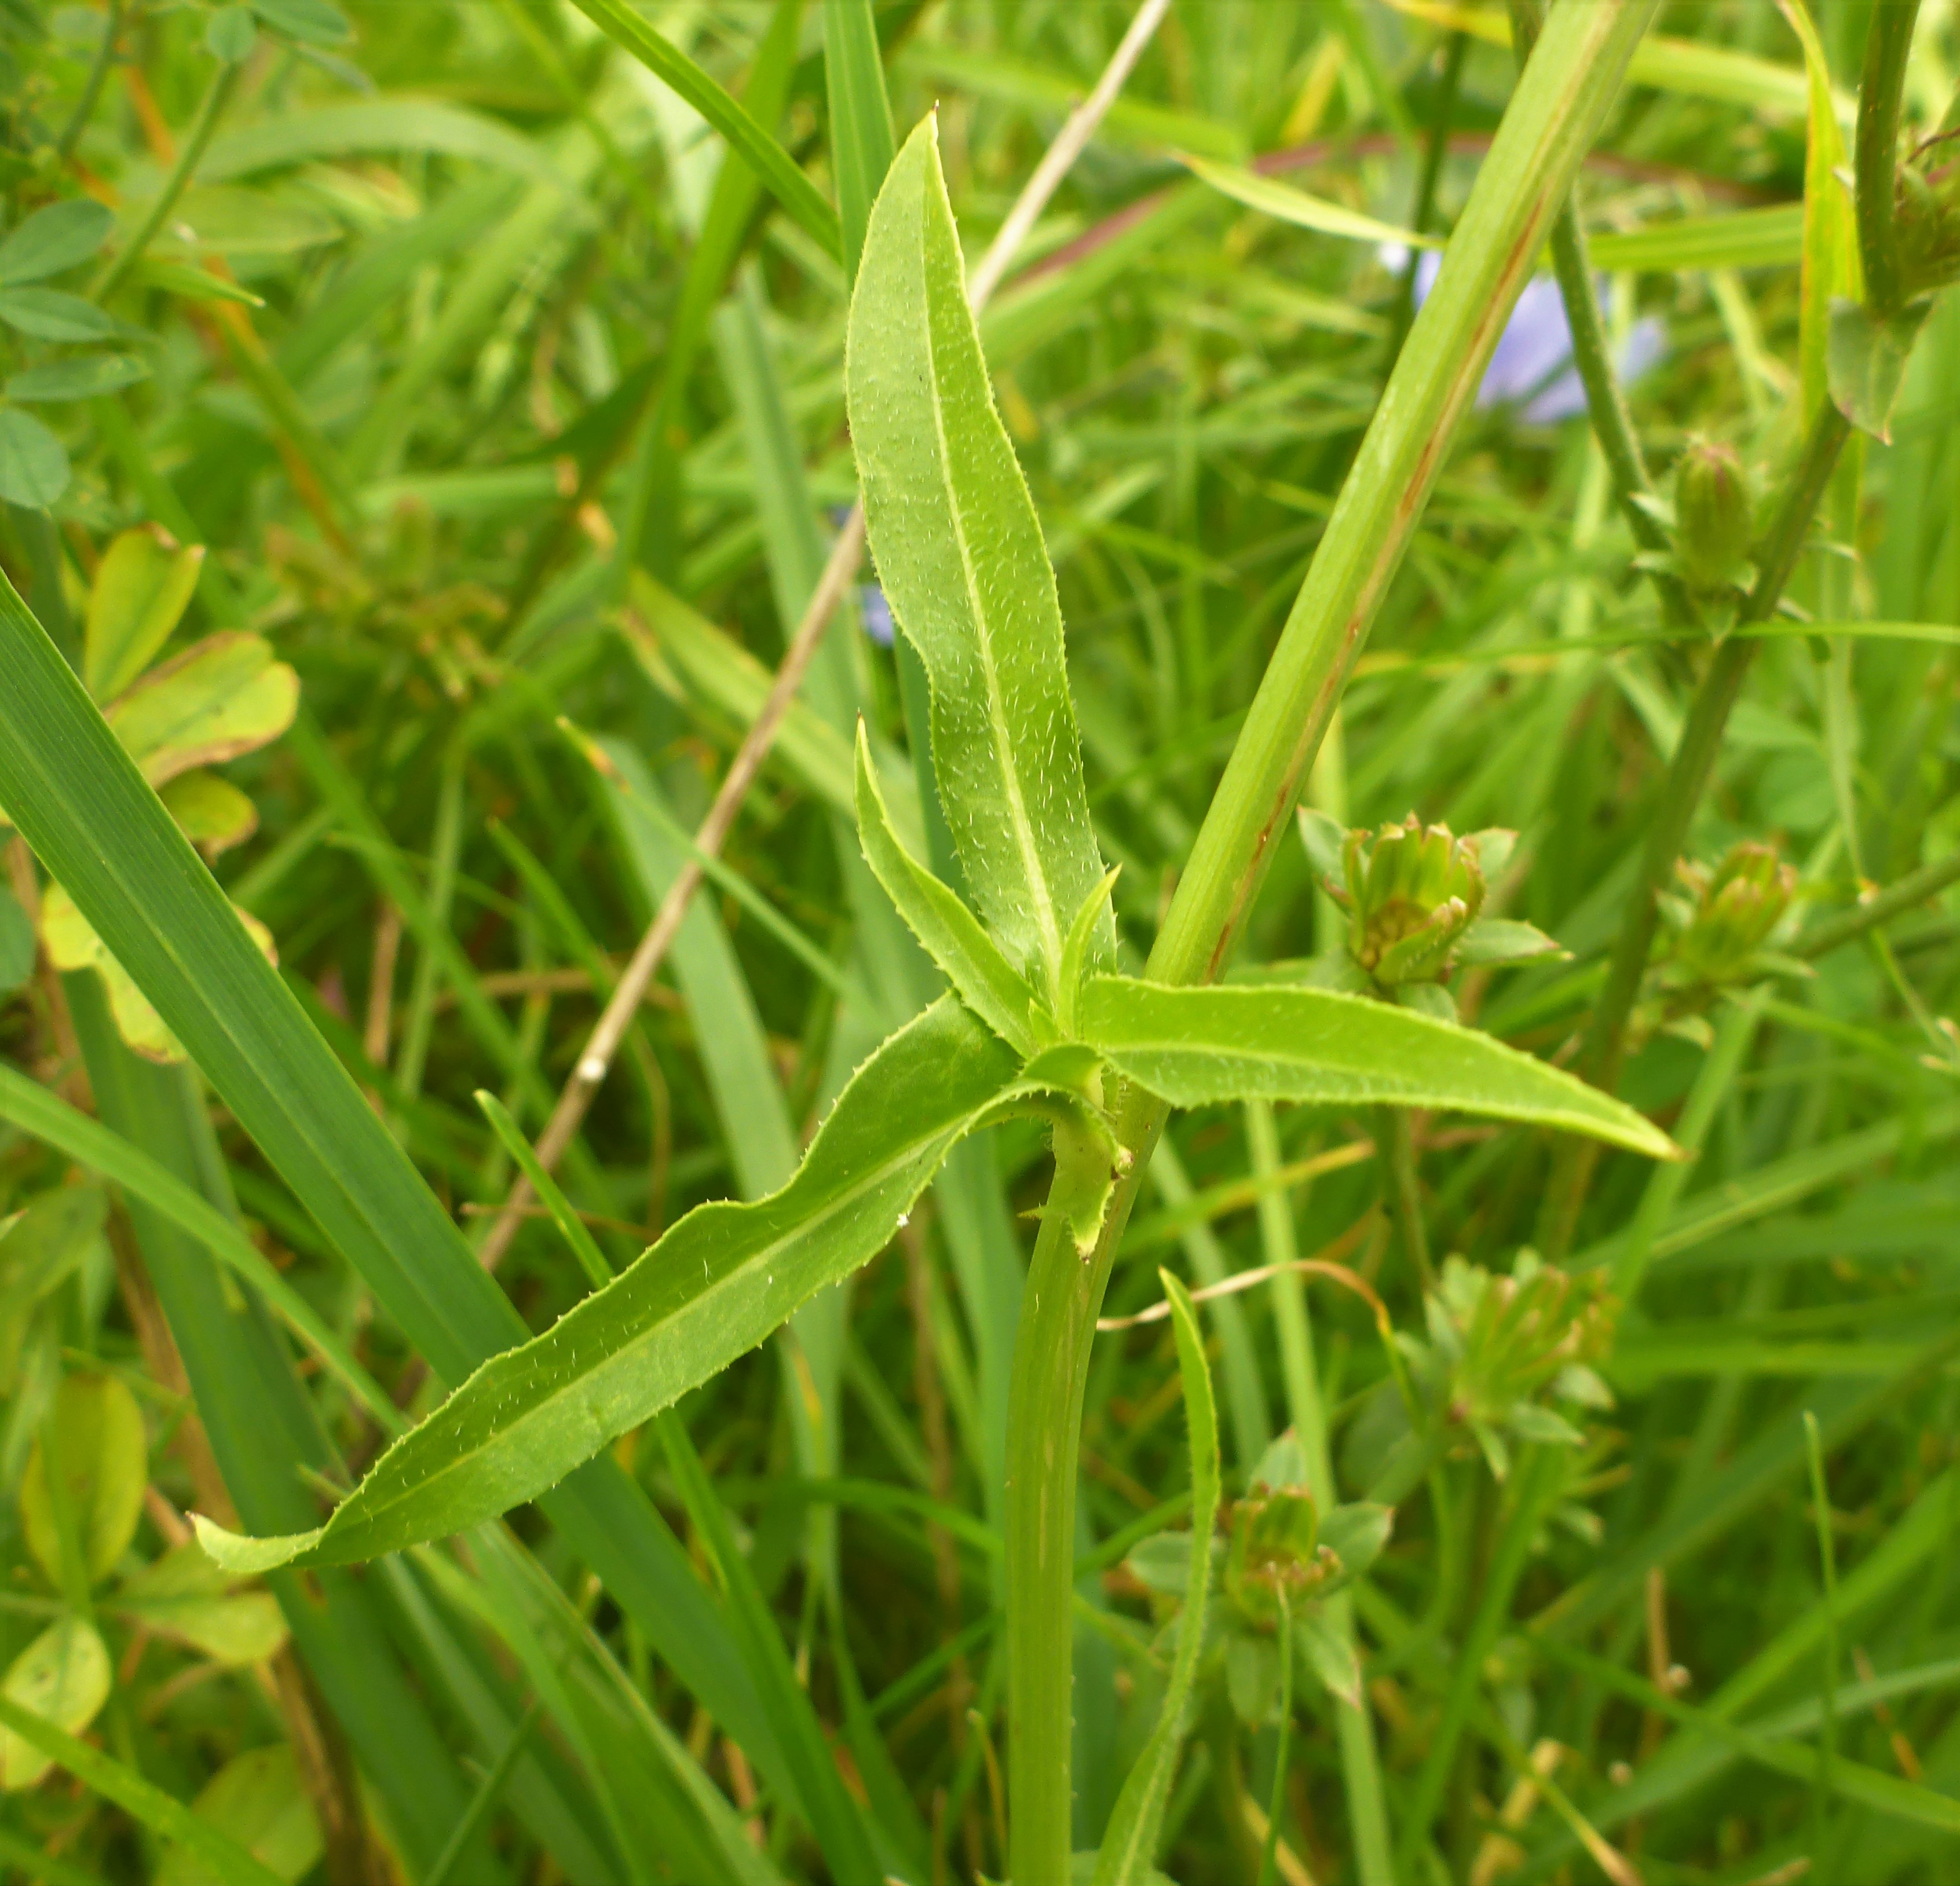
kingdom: Plantae
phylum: Tracheophyta
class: Magnoliopsida
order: Asterales
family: Asteraceae
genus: Cichorium
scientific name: Cichorium intybus
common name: Cikorie
